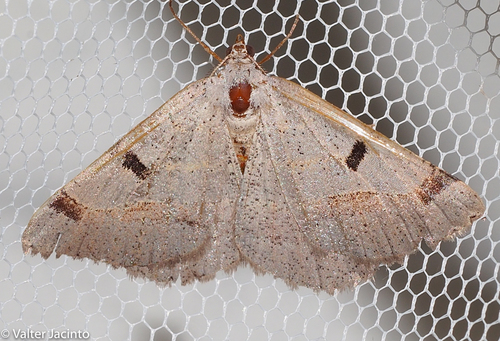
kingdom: Animalia
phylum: Arthropoda
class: Insecta
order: Lepidoptera
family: Geometridae
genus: Itame
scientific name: Itame vincularia
